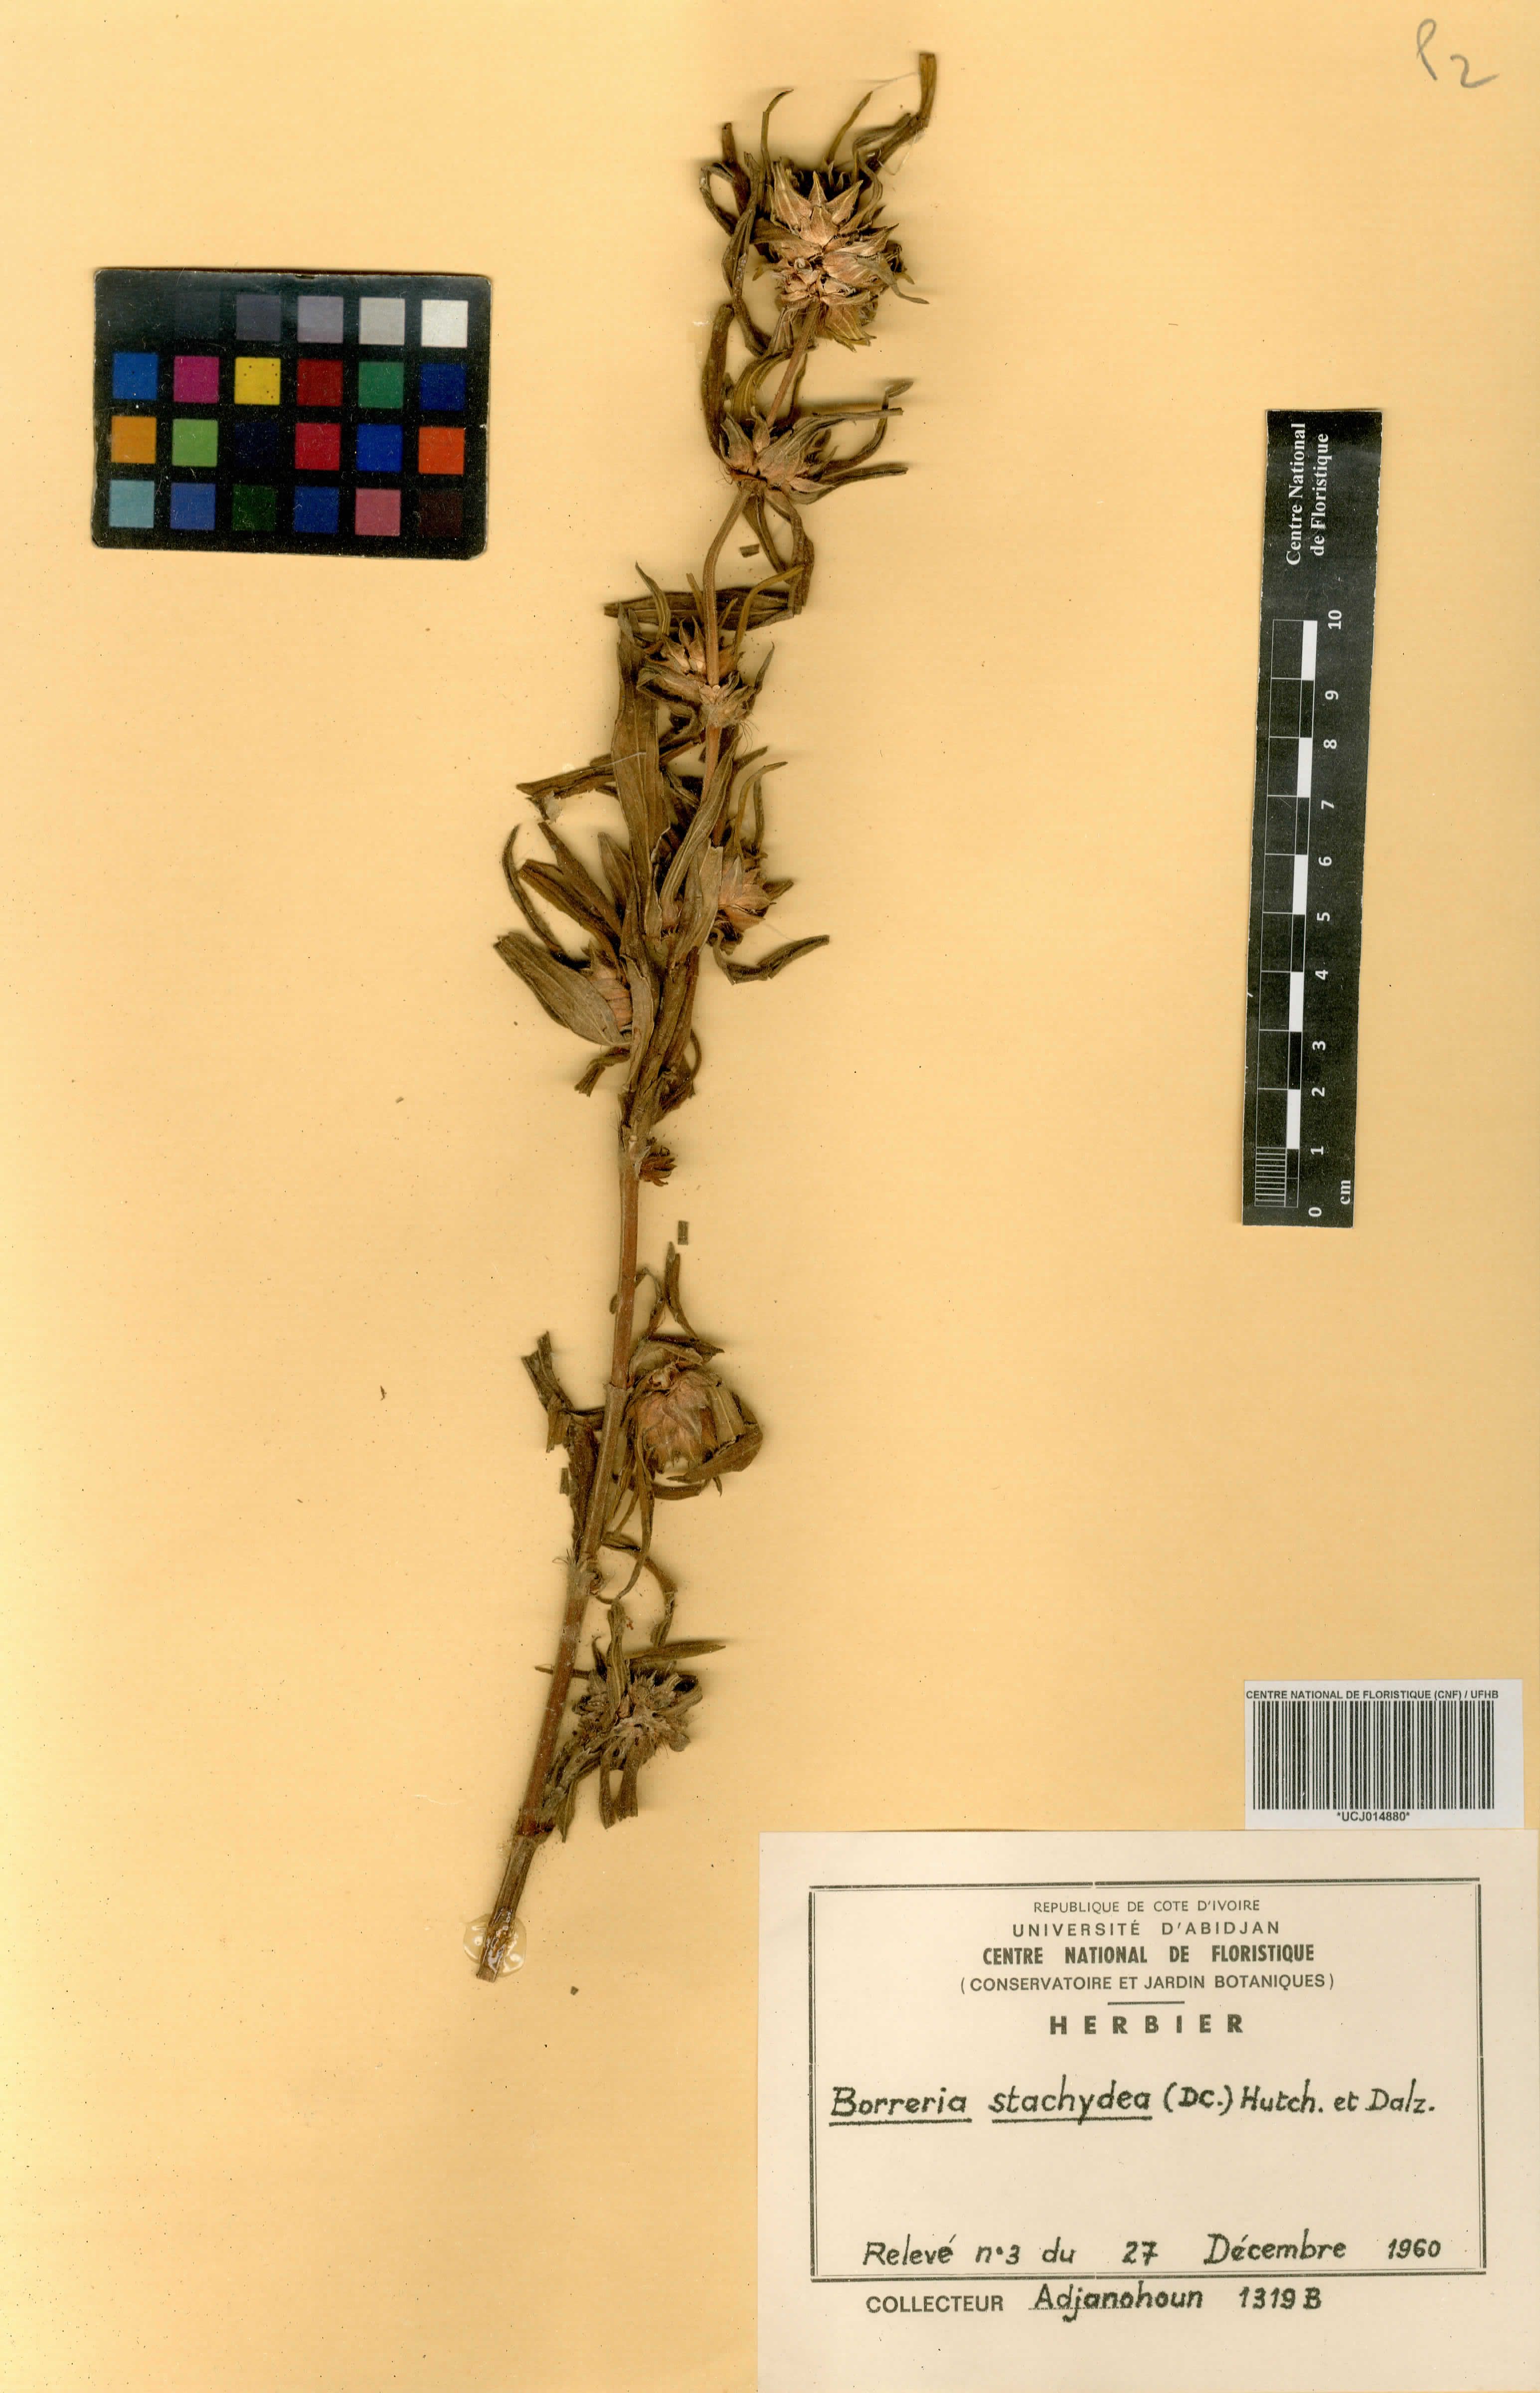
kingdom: Plantae
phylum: Tracheophyta
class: Magnoliopsida
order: Gentianales
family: Rubiaceae
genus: Spermacoce
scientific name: Spermacoce stachydea
